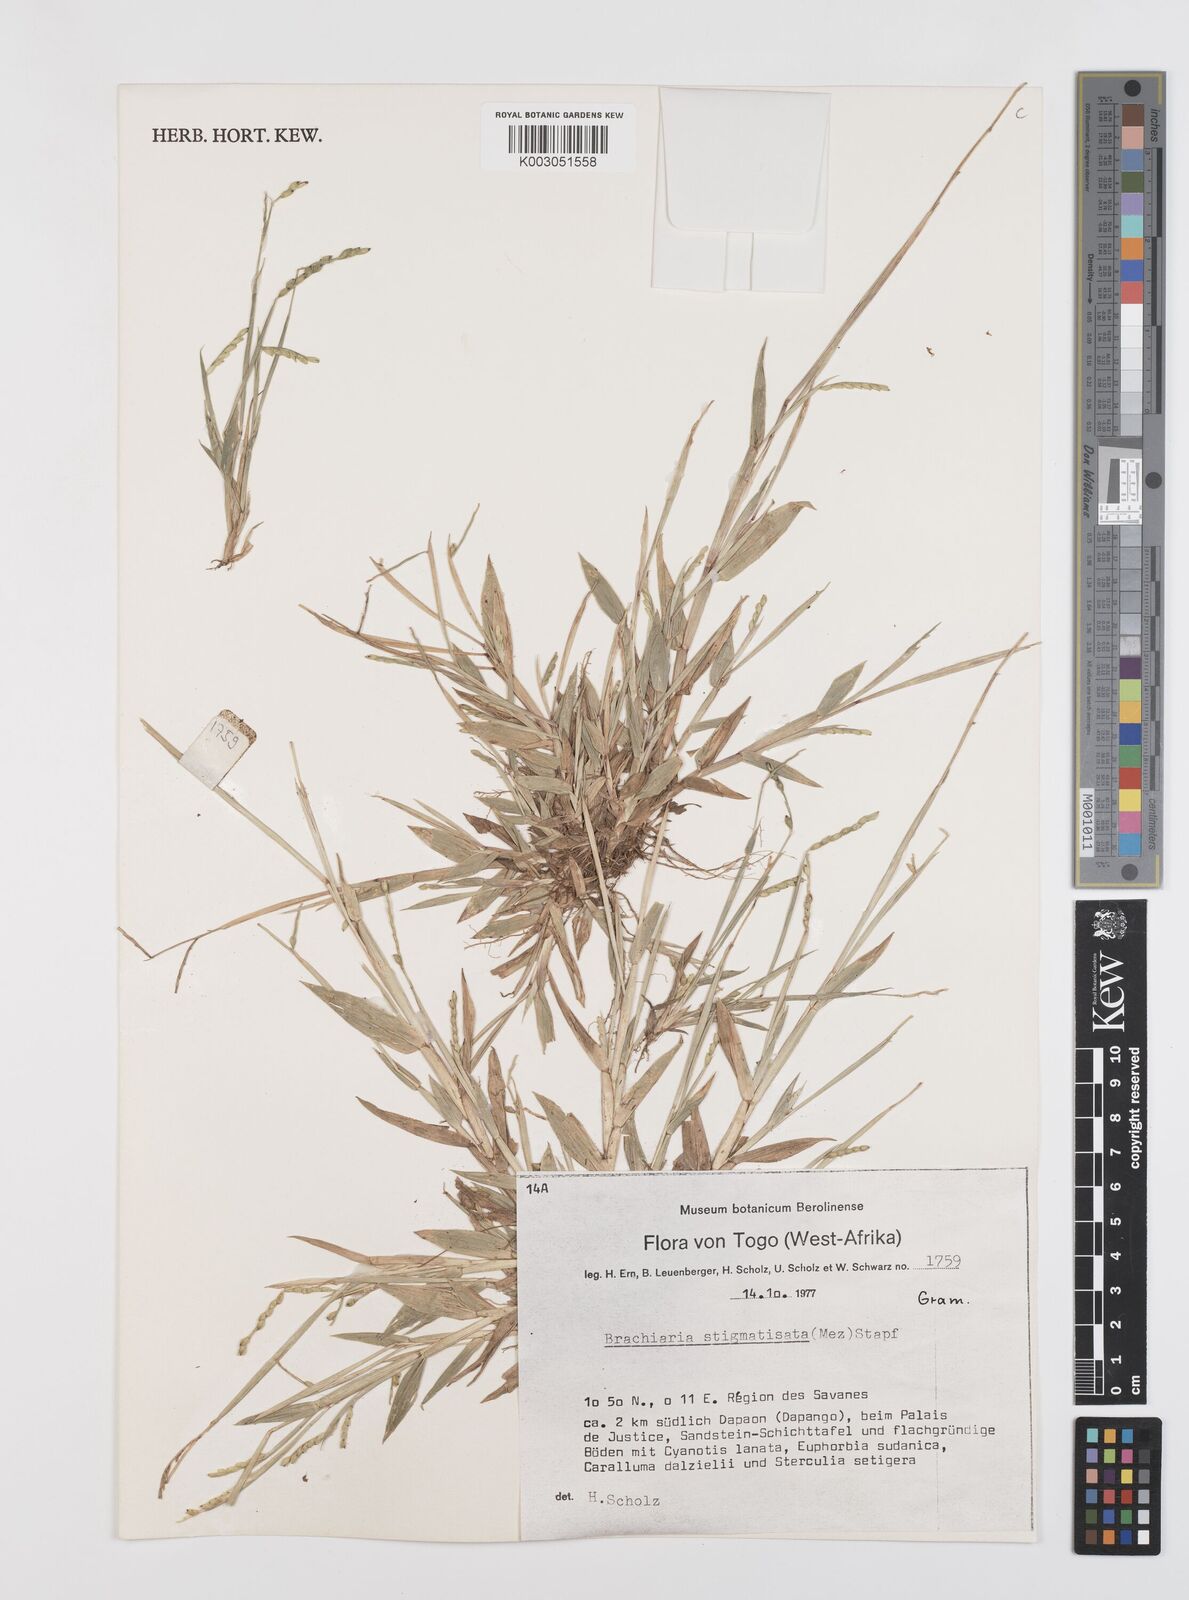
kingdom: Plantae
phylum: Tracheophyta
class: Liliopsida
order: Poales
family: Poaceae
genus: Urochloa
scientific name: Urochloa stigmatisata
